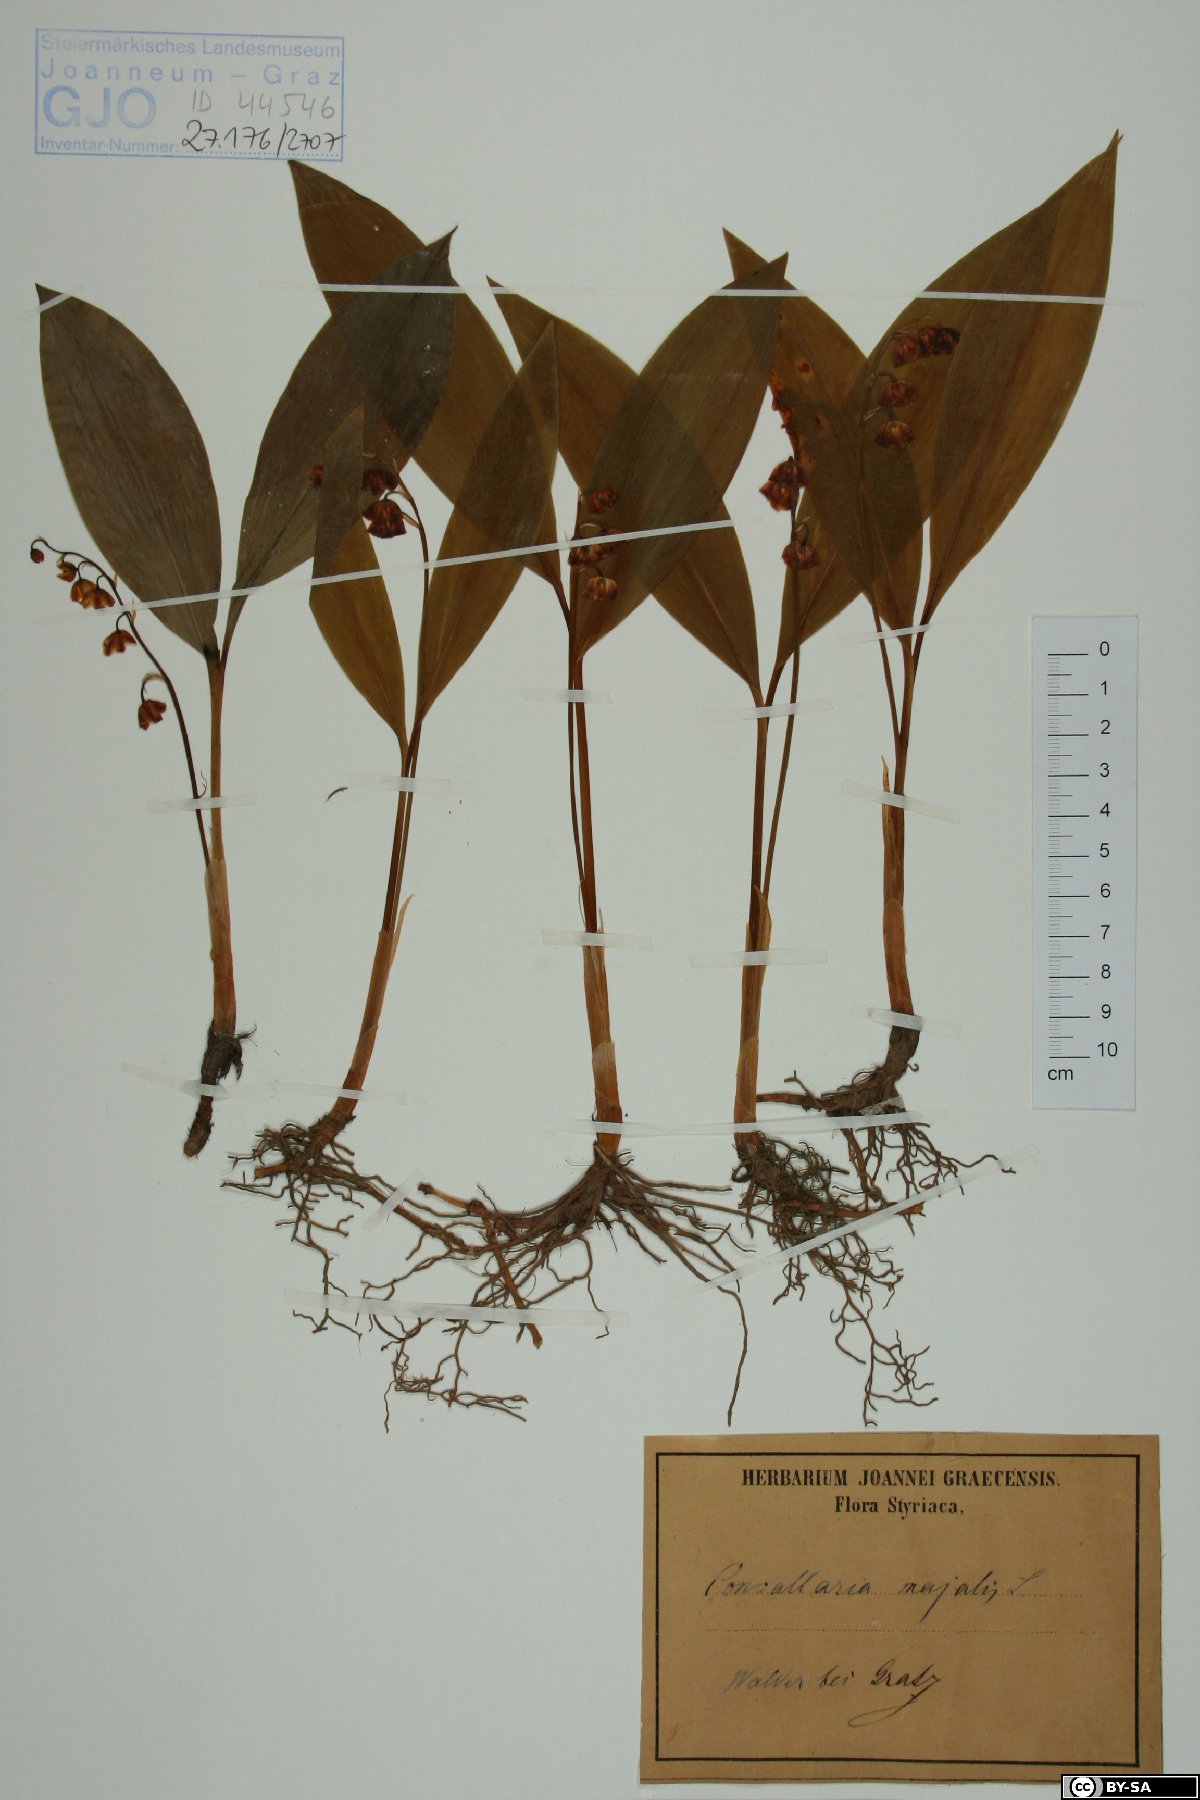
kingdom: Plantae
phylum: Tracheophyta
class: Liliopsida
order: Asparagales
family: Asparagaceae
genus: Convallaria
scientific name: Convallaria majalis
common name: Lily-of-the-valley
